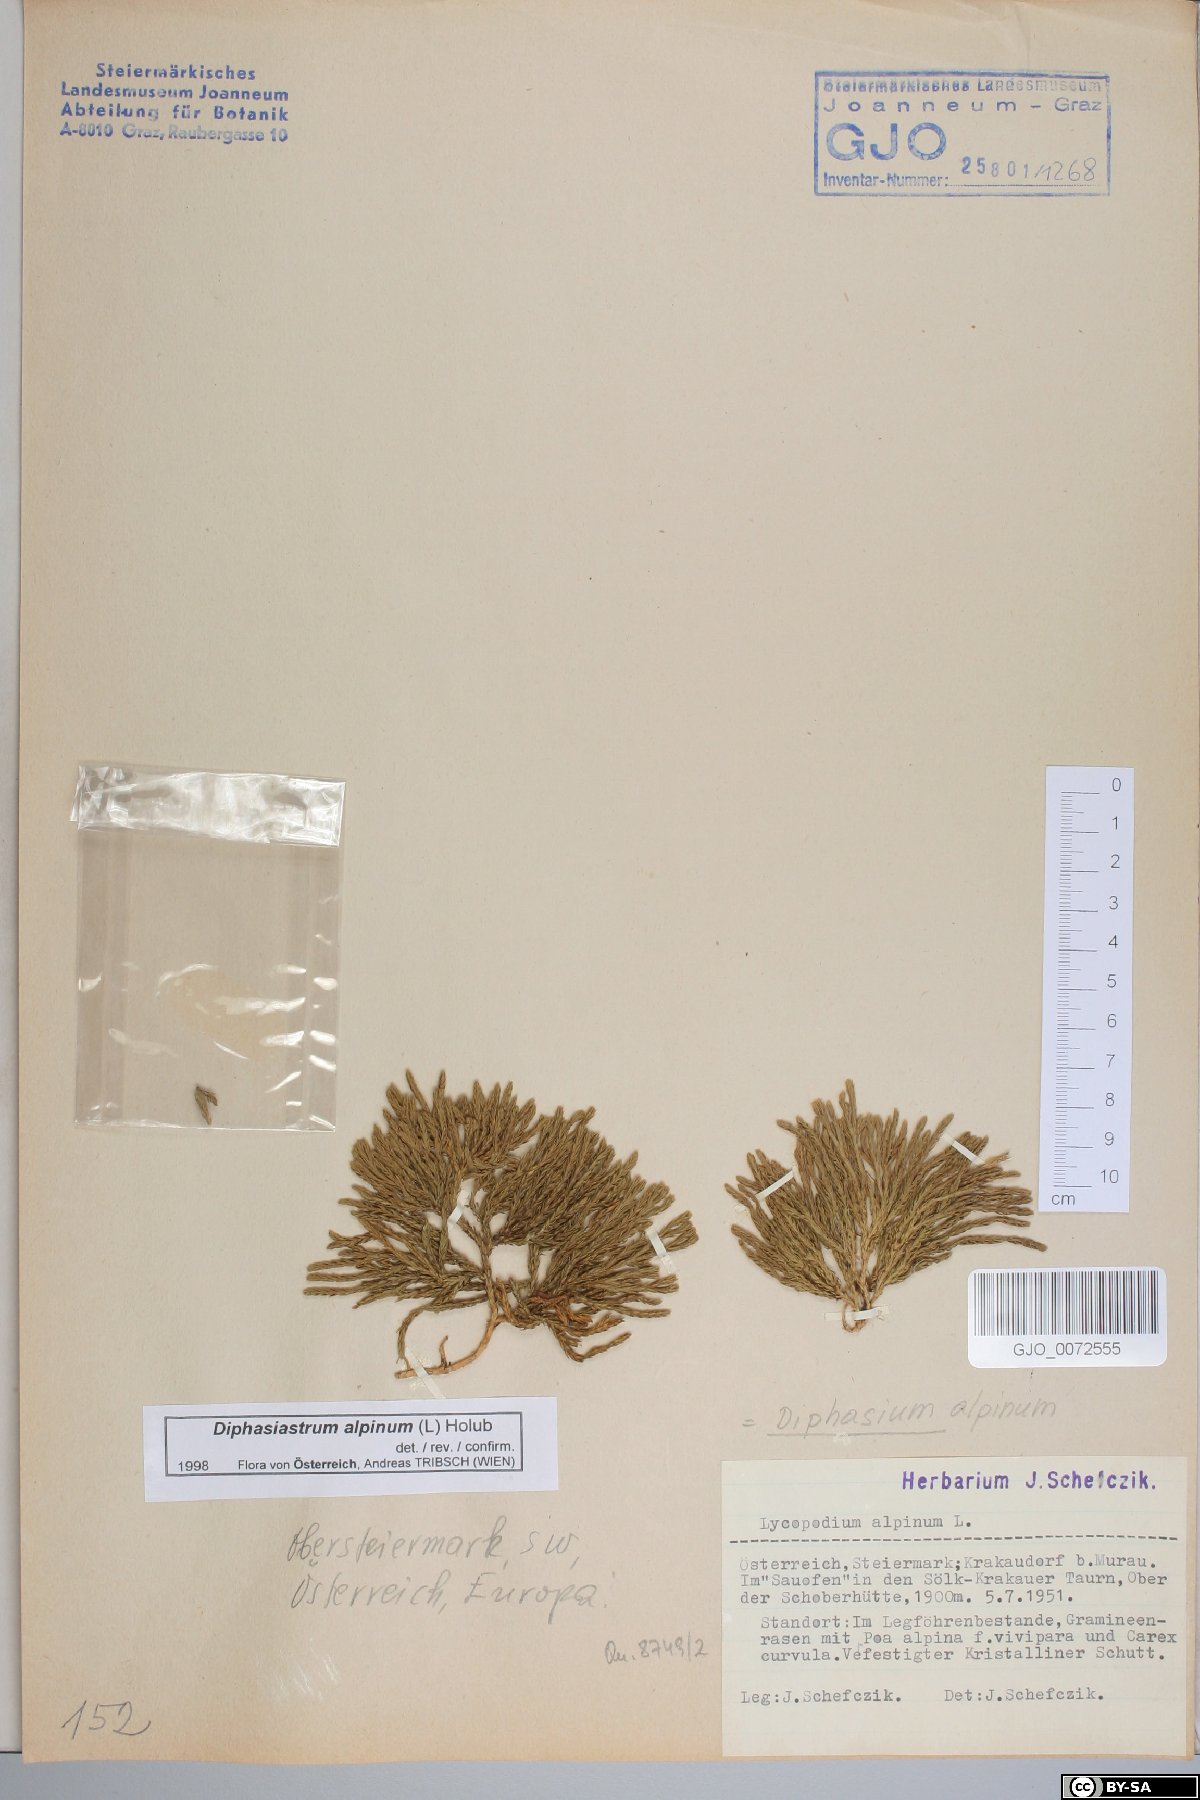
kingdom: Plantae
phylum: Tracheophyta
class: Lycopodiopsida
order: Lycopodiales
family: Lycopodiaceae
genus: Diphasiastrum
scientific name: Diphasiastrum alpinum
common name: Alpine clubmoss
